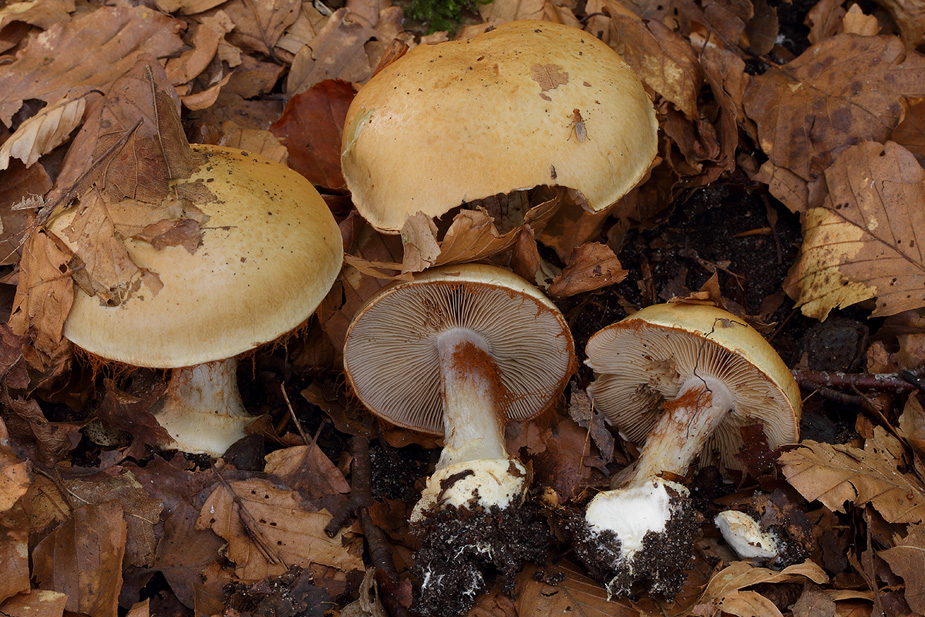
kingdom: Fungi
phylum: Basidiomycota
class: Agaricomycetes
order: Agaricales
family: Cortinariaceae
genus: Cortinarius
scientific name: Cortinarius anserinus
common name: bøge-slørhat
